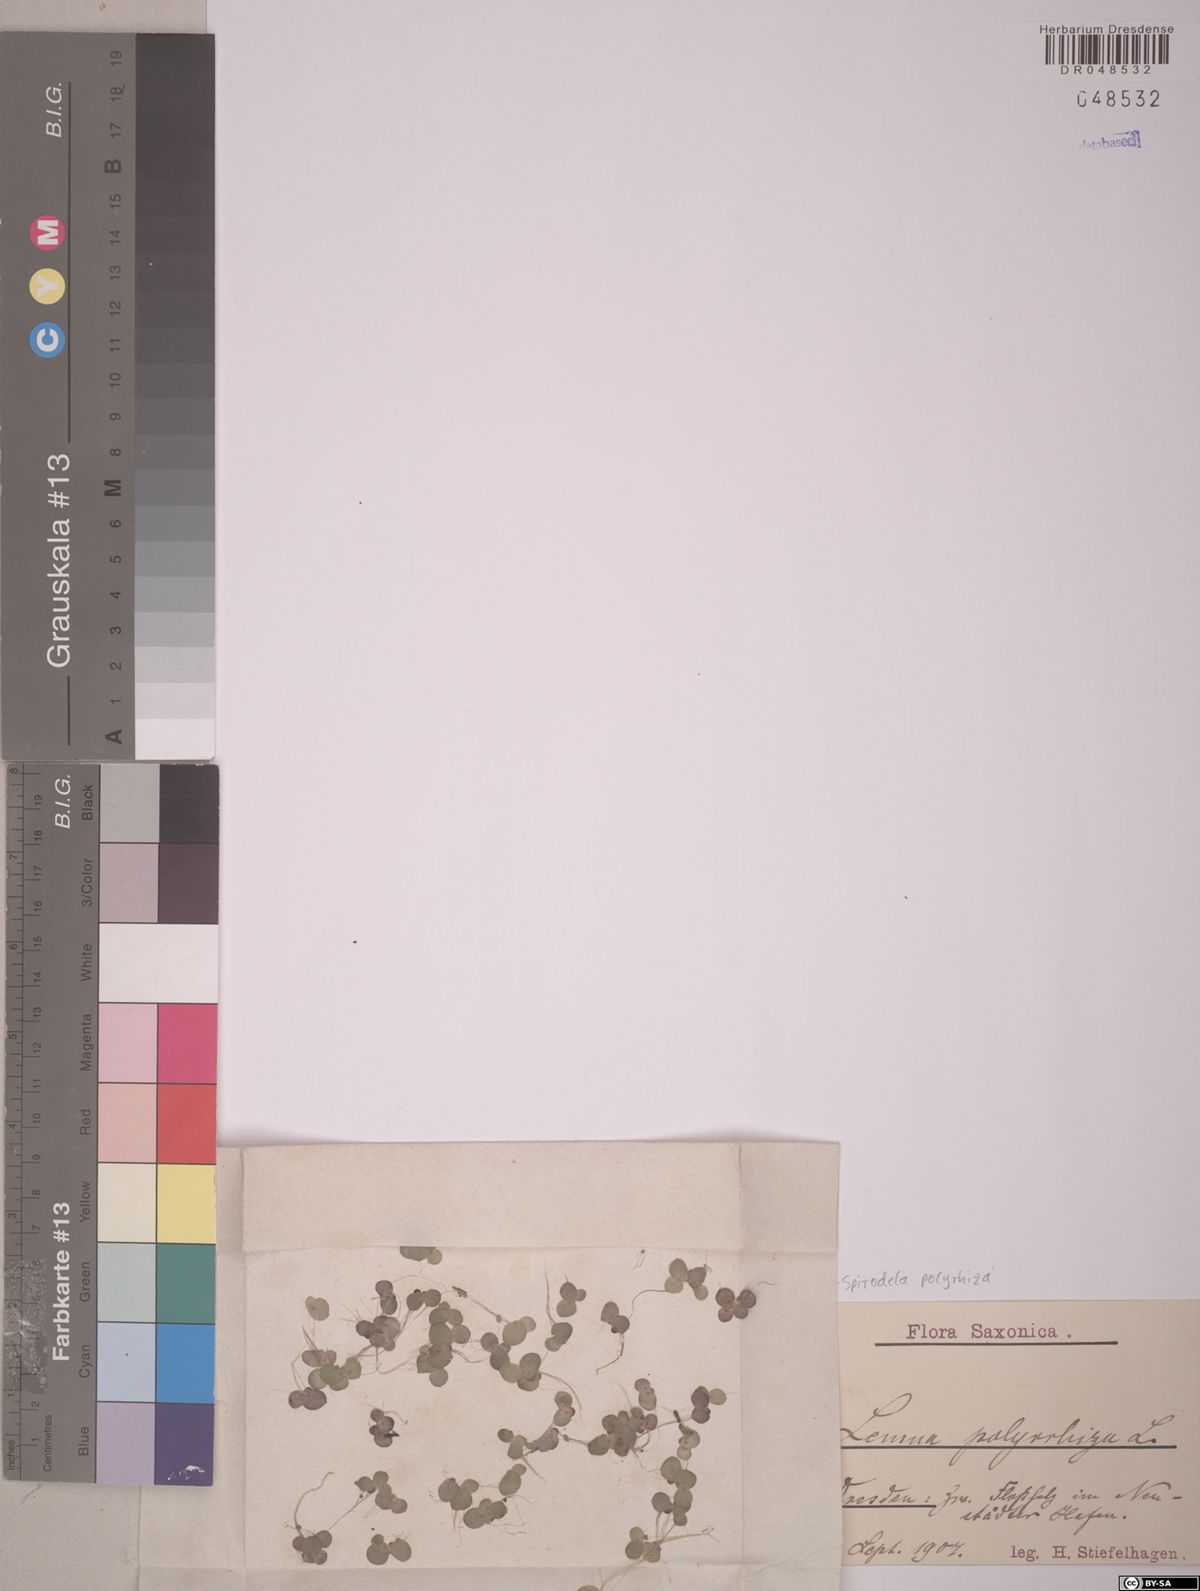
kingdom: Plantae
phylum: Tracheophyta
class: Liliopsida
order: Alismatales
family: Araceae
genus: Spirodela
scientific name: Spirodela polyrhiza
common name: Great duckweed
